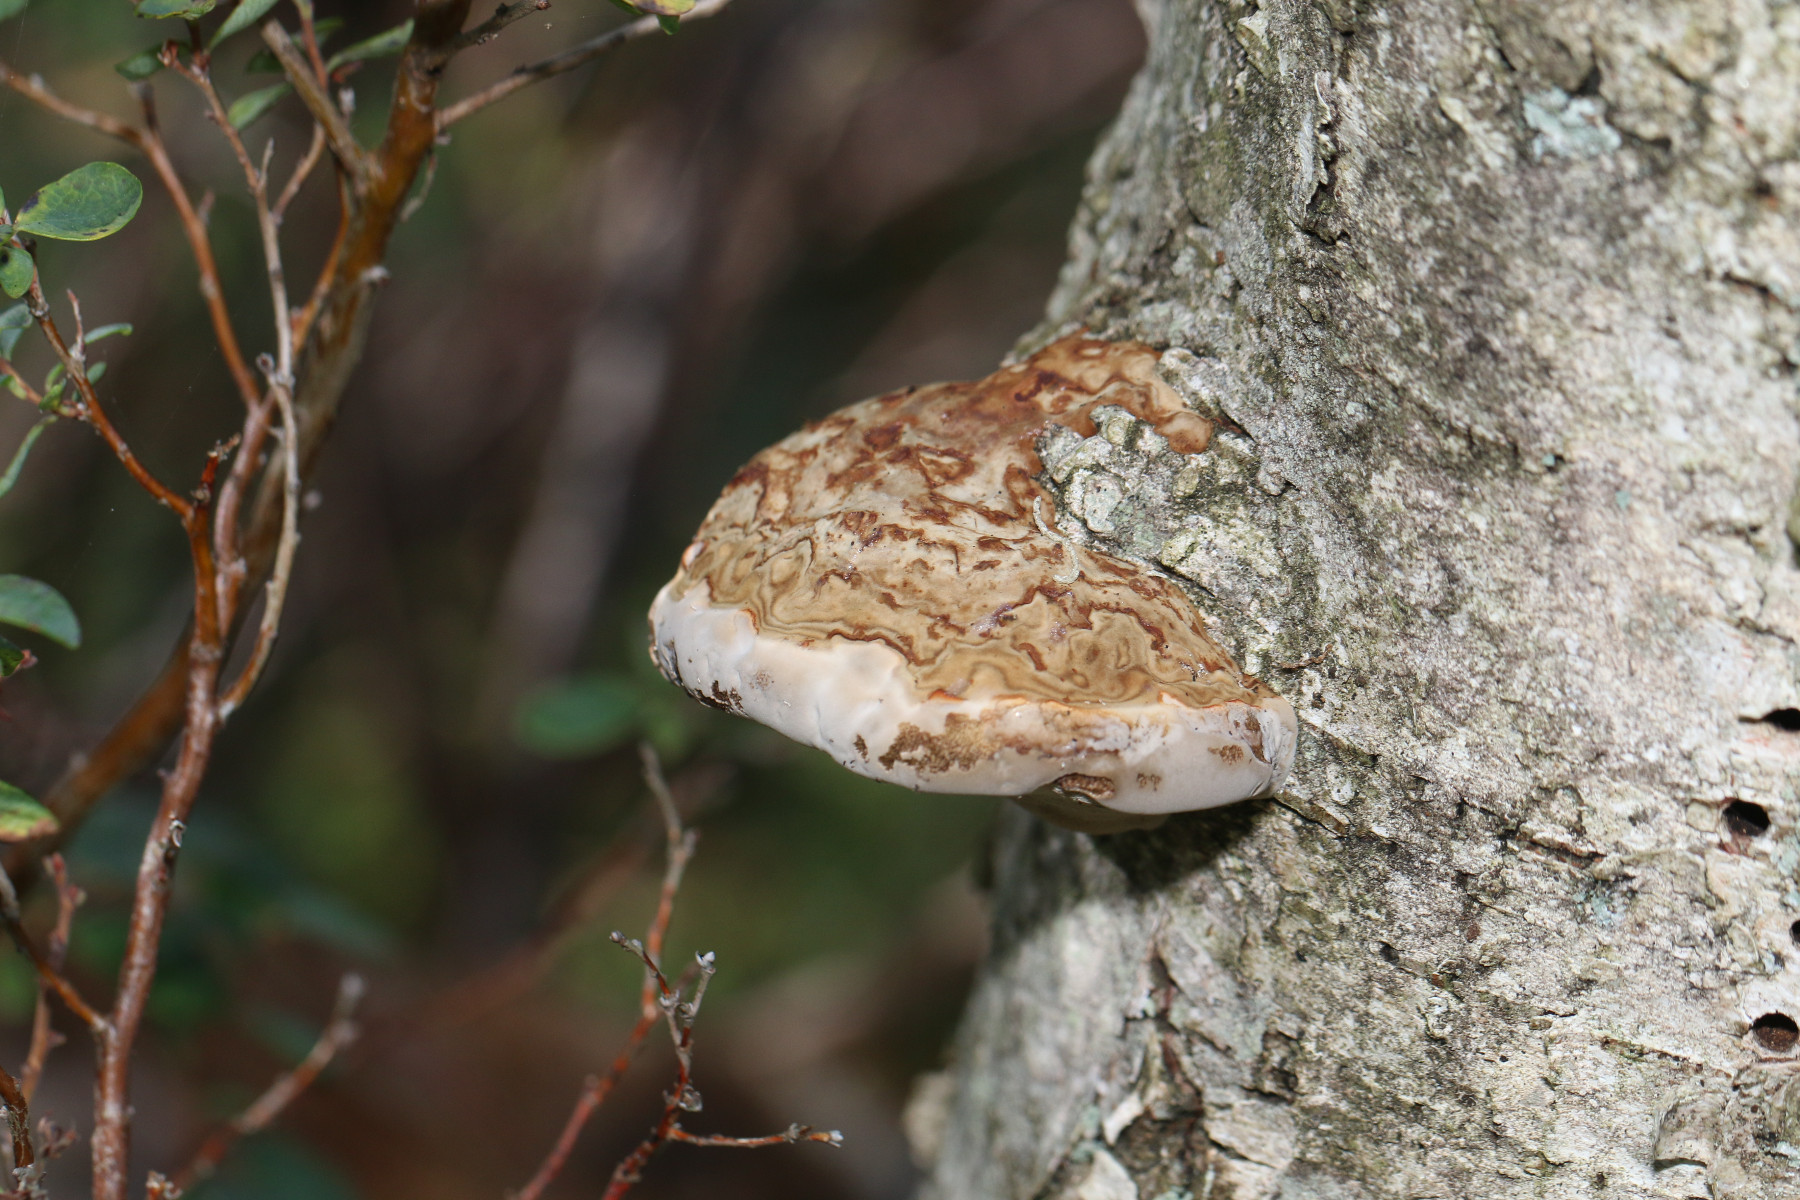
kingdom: Fungi
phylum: Basidiomycota
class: Agaricomycetes
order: Polyporales
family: Polyporaceae
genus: Fomes
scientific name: Fomes fomentarius
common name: tøndersvamp
